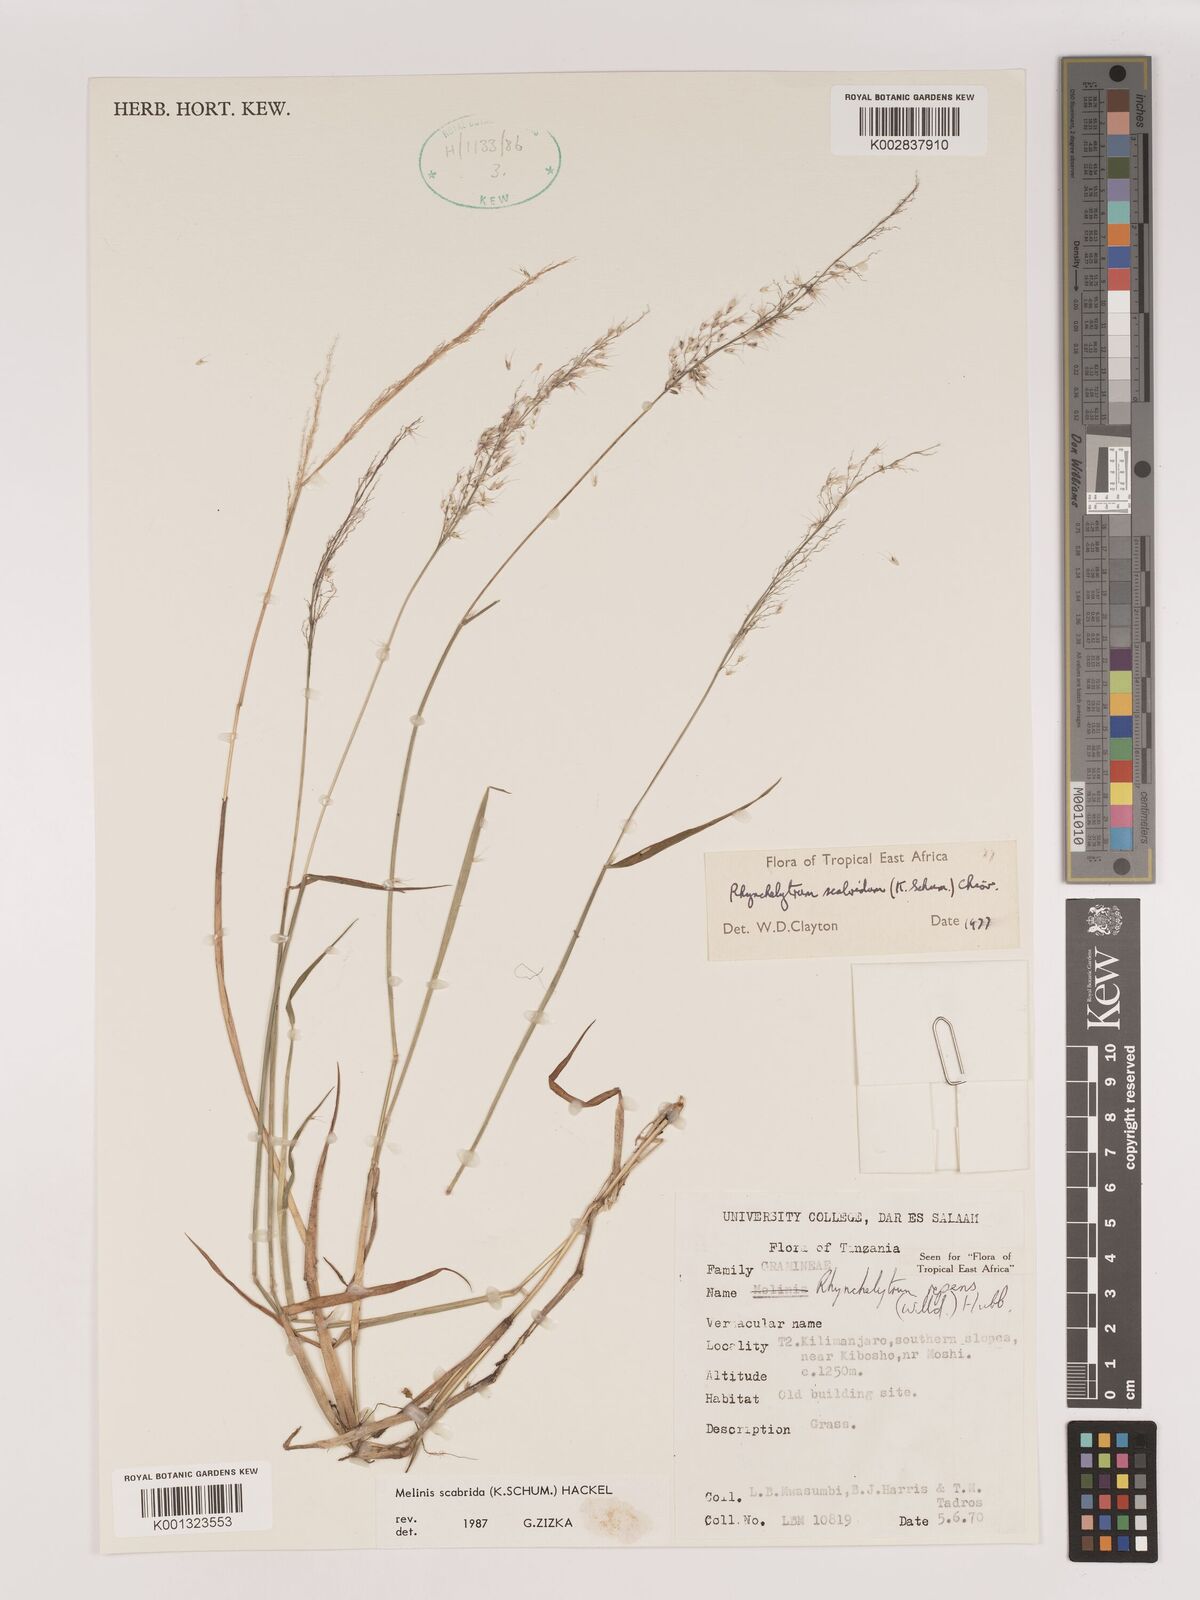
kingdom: Plantae
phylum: Tracheophyta
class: Liliopsida
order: Poales
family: Poaceae
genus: Melinis
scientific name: Melinis scabrida
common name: Millet grass
